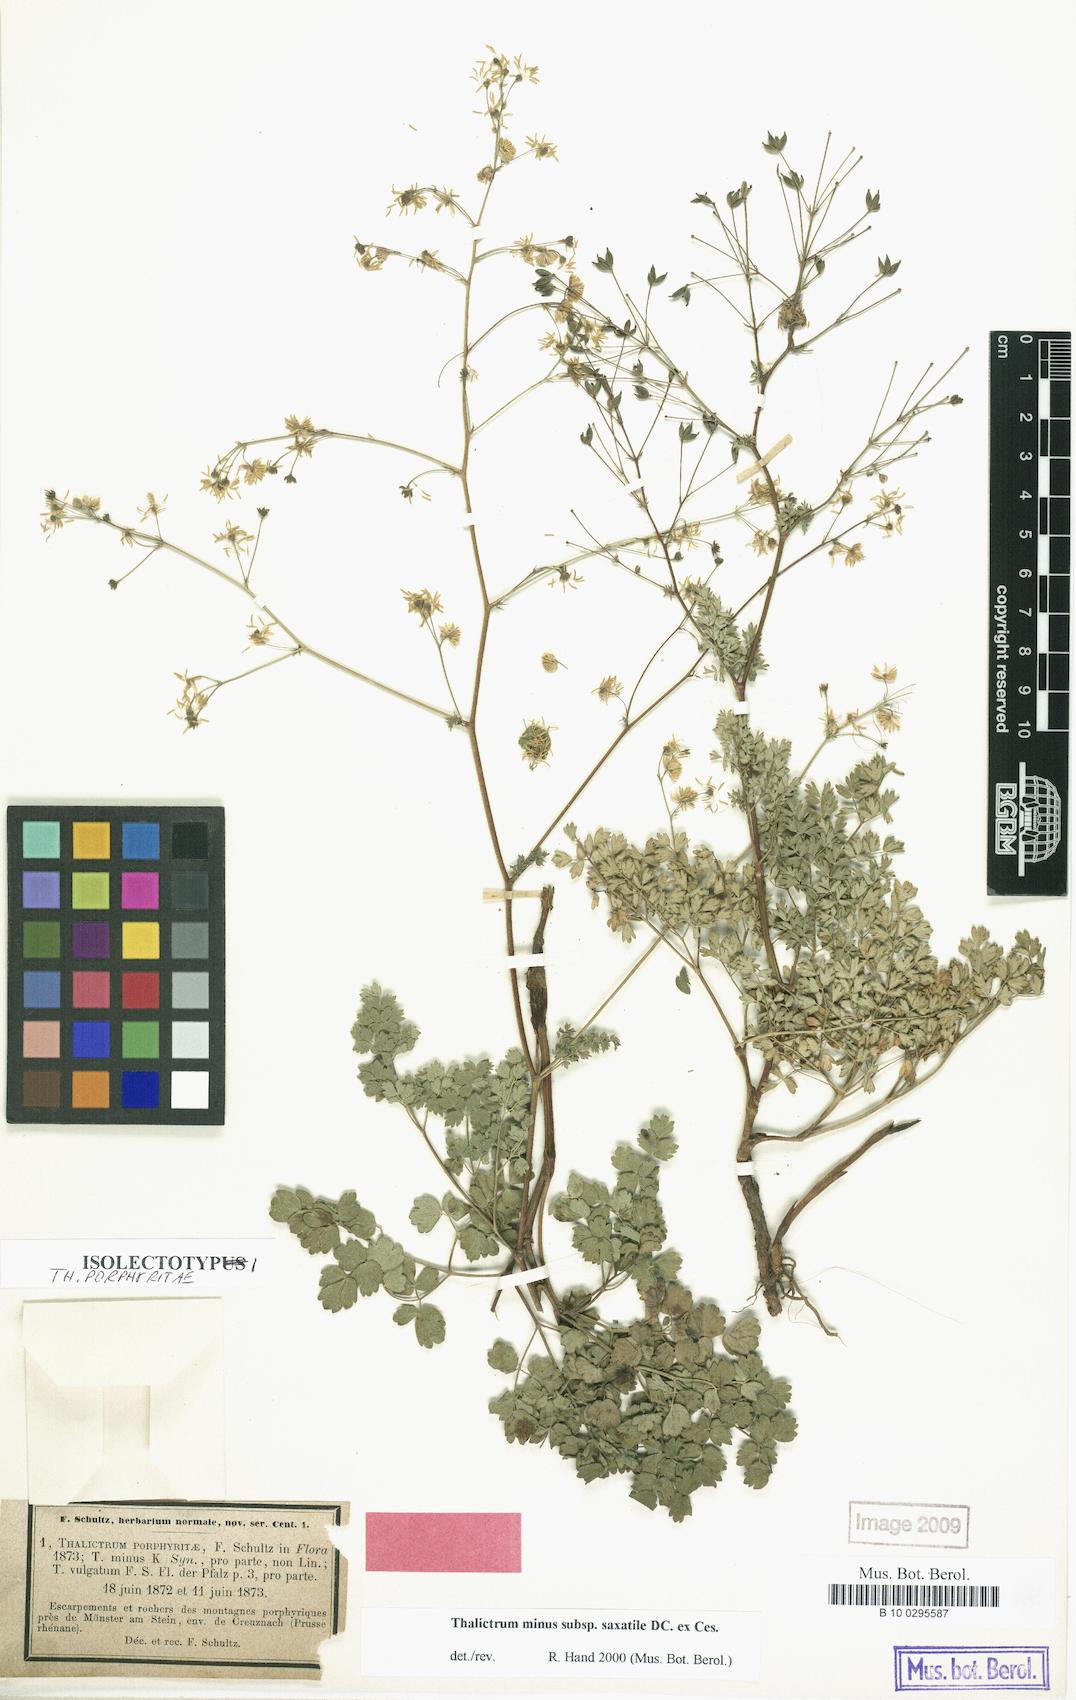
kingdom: Plantae
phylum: Tracheophyta
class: Magnoliopsida
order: Ranunculales
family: Ranunculaceae
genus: Thalictrum
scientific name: Thalictrum minus
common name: Lesser meadow-rue
